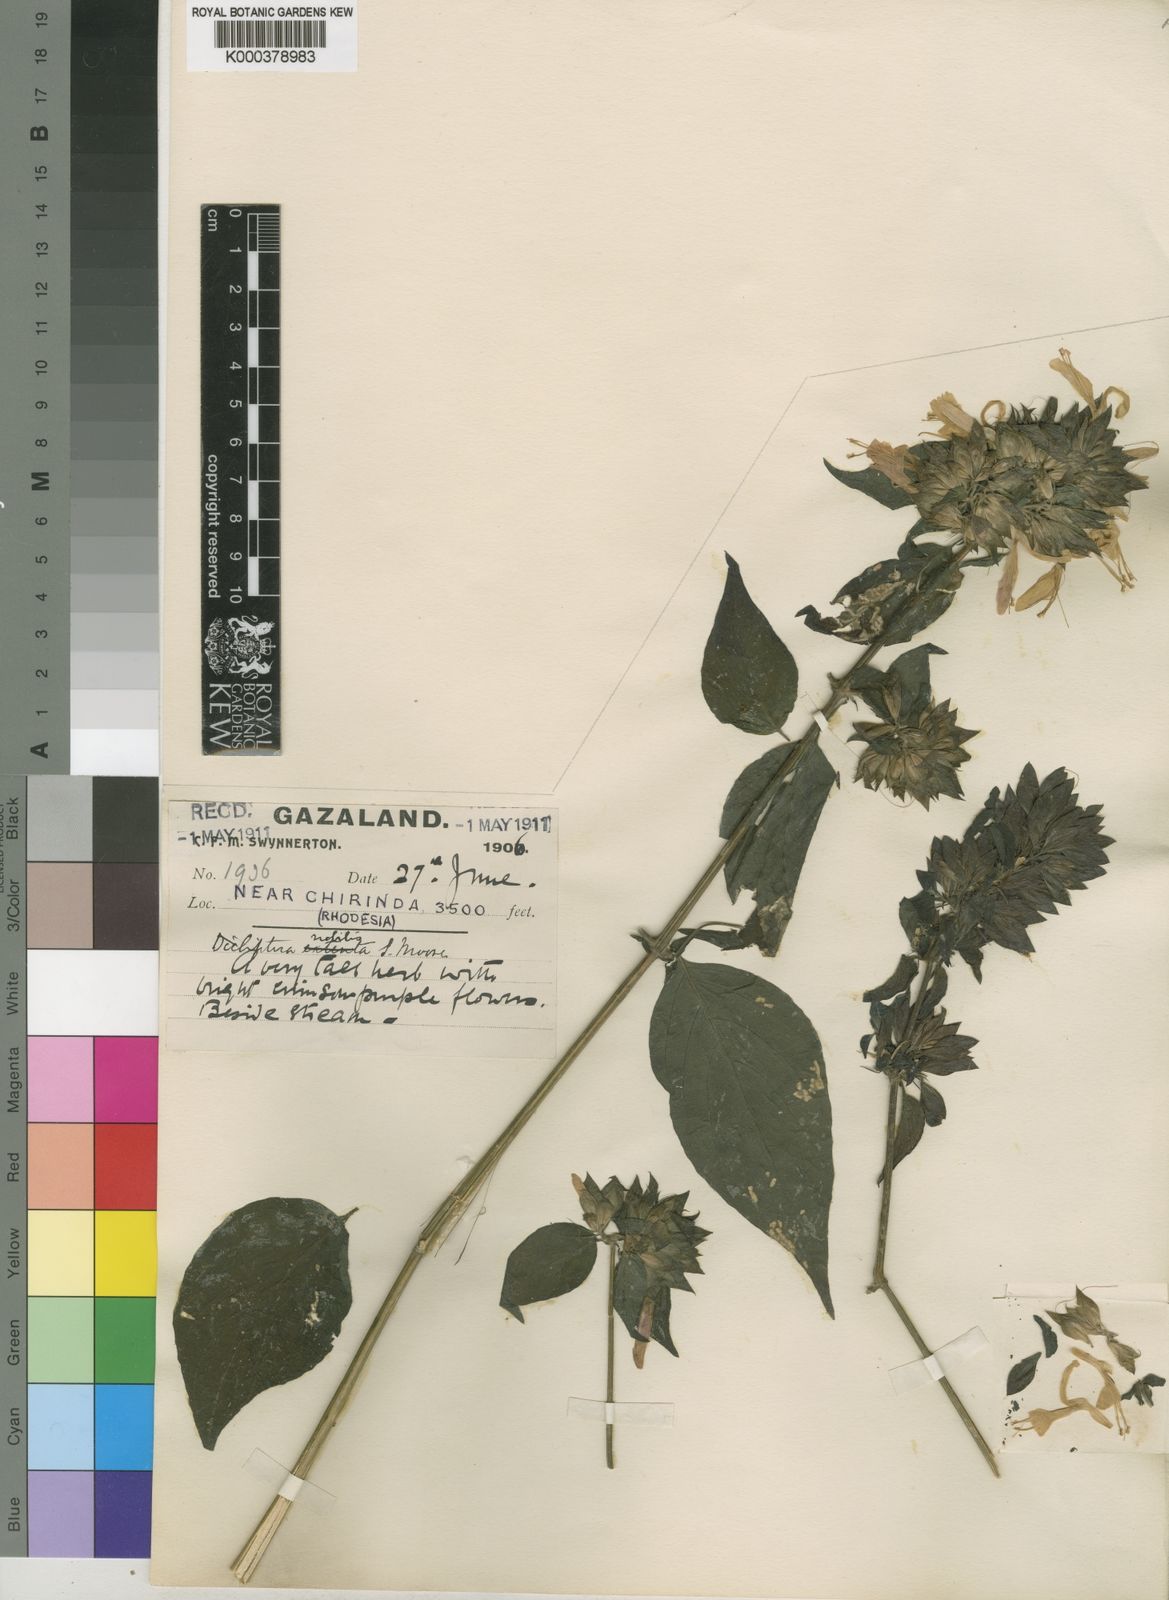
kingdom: Plantae
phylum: Tracheophyta
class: Magnoliopsida
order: Lamiales
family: Acanthaceae
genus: Dicliptera
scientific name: Dicliptera clinopodia
